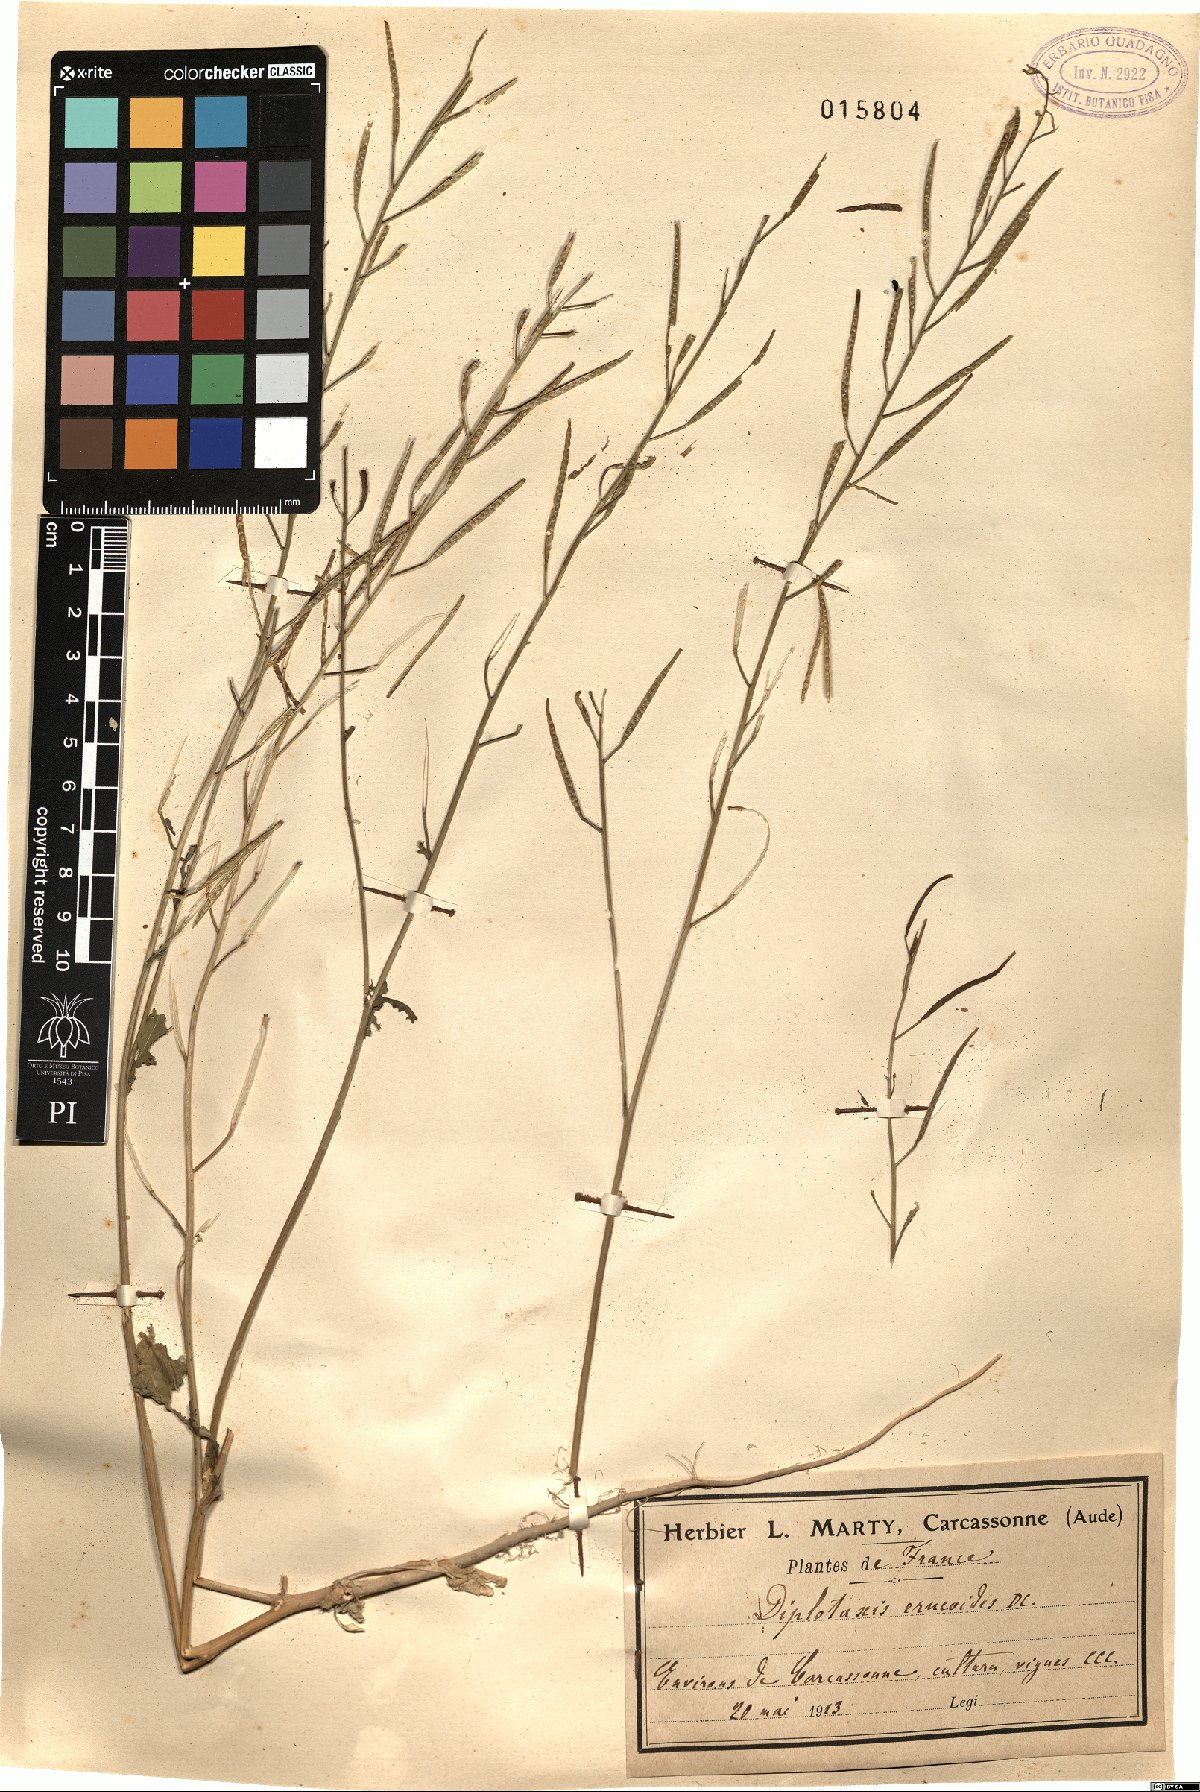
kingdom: Plantae
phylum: Tracheophyta
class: Magnoliopsida
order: Brassicales
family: Brassicaceae
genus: Diplotaxis
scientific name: Diplotaxis erucoides
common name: White rocket
